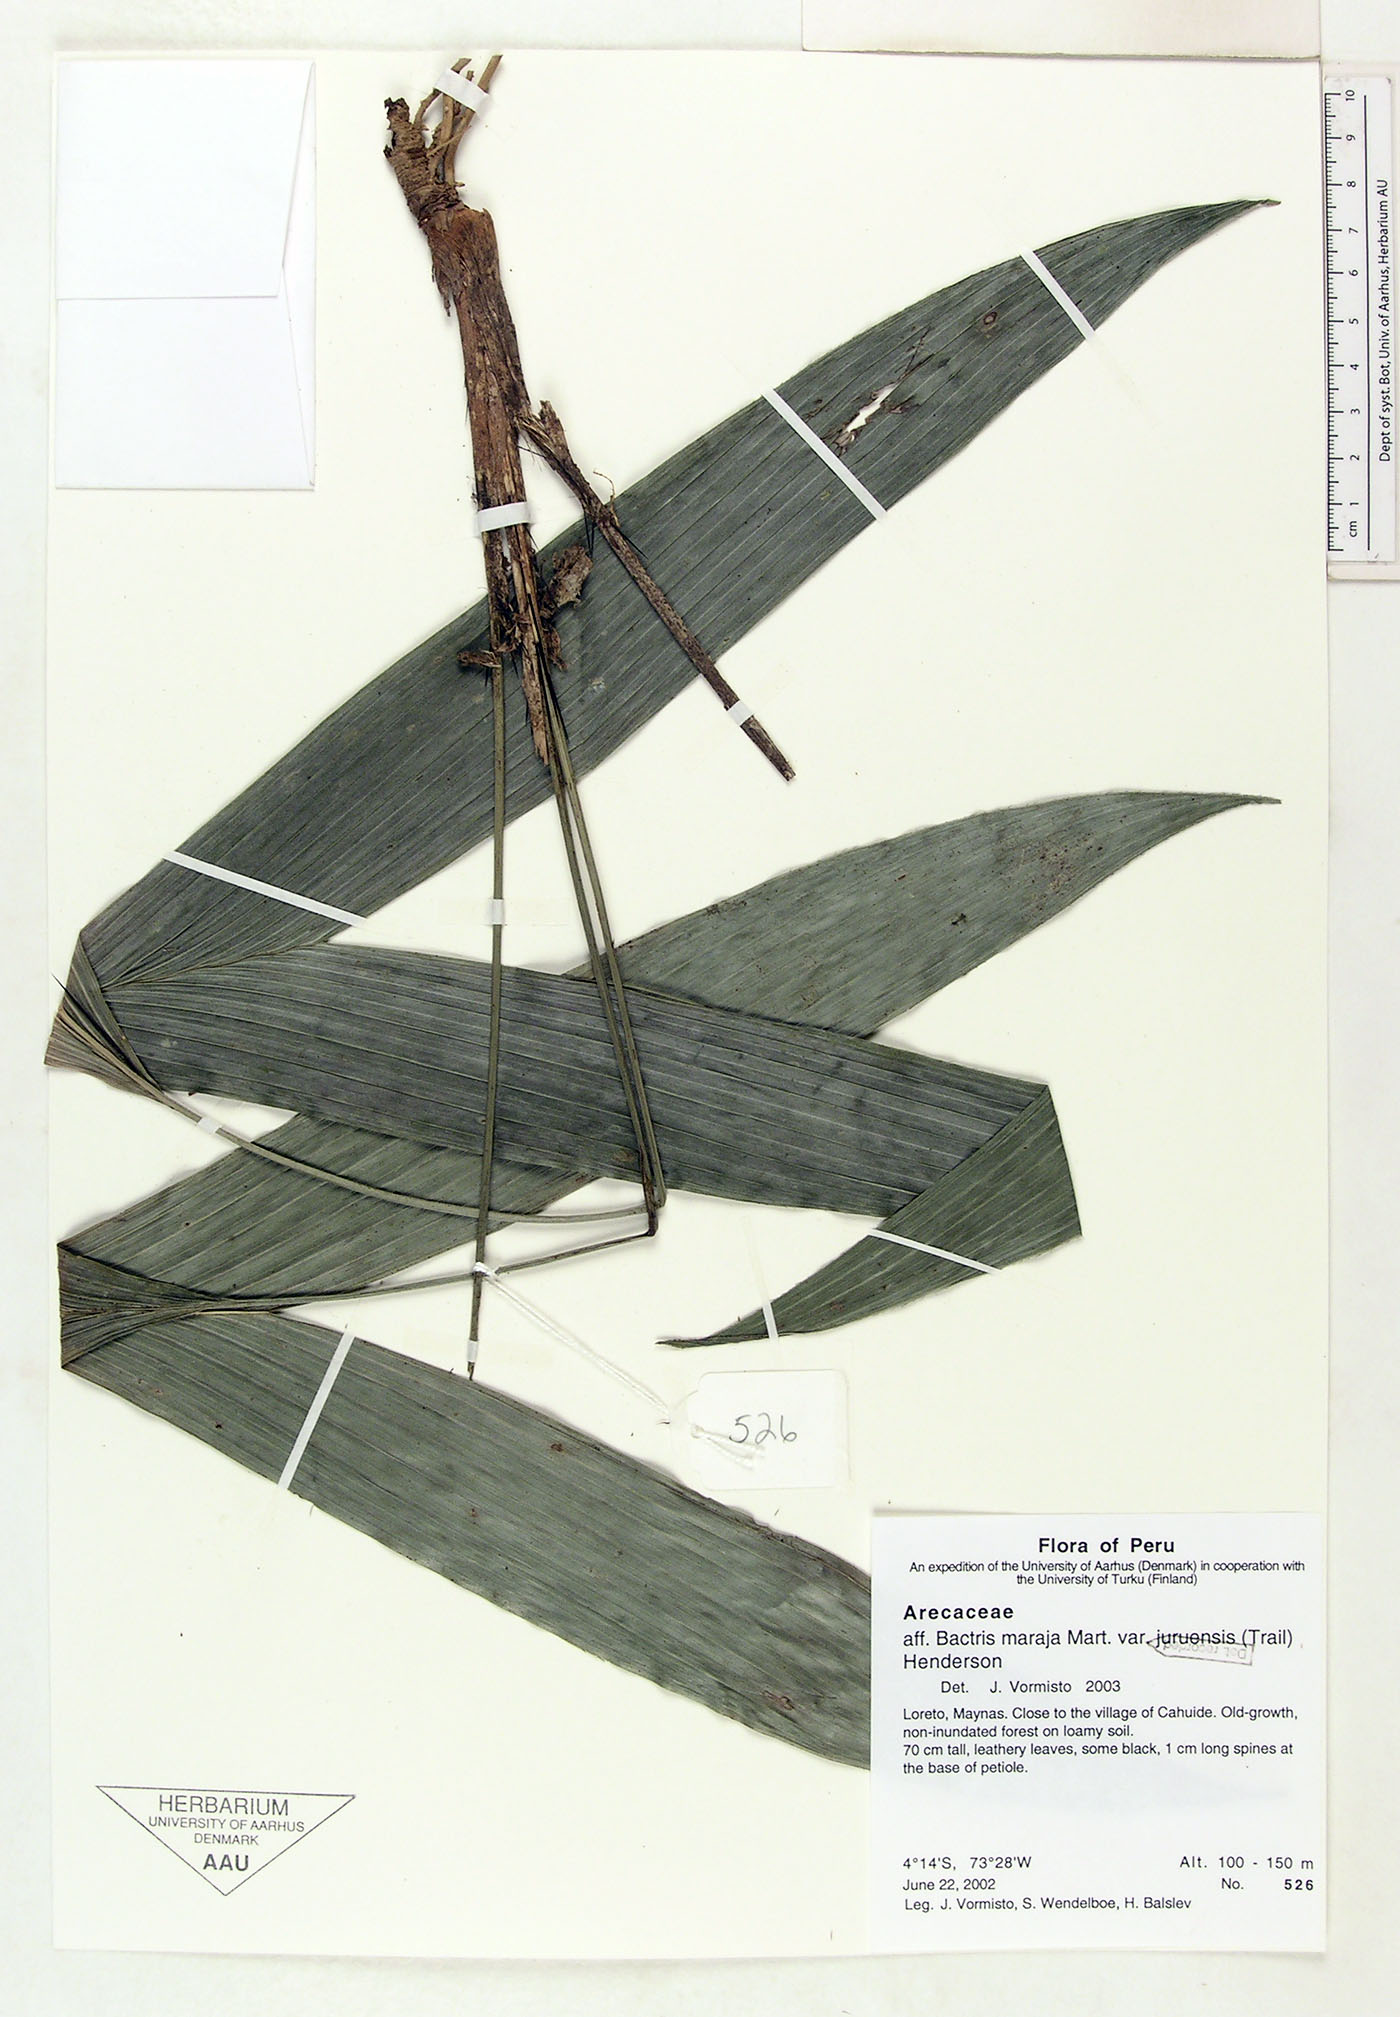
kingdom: Plantae
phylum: Tracheophyta
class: Liliopsida
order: Arecales
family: Arecaceae
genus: Bactris
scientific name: Bactris maraja
